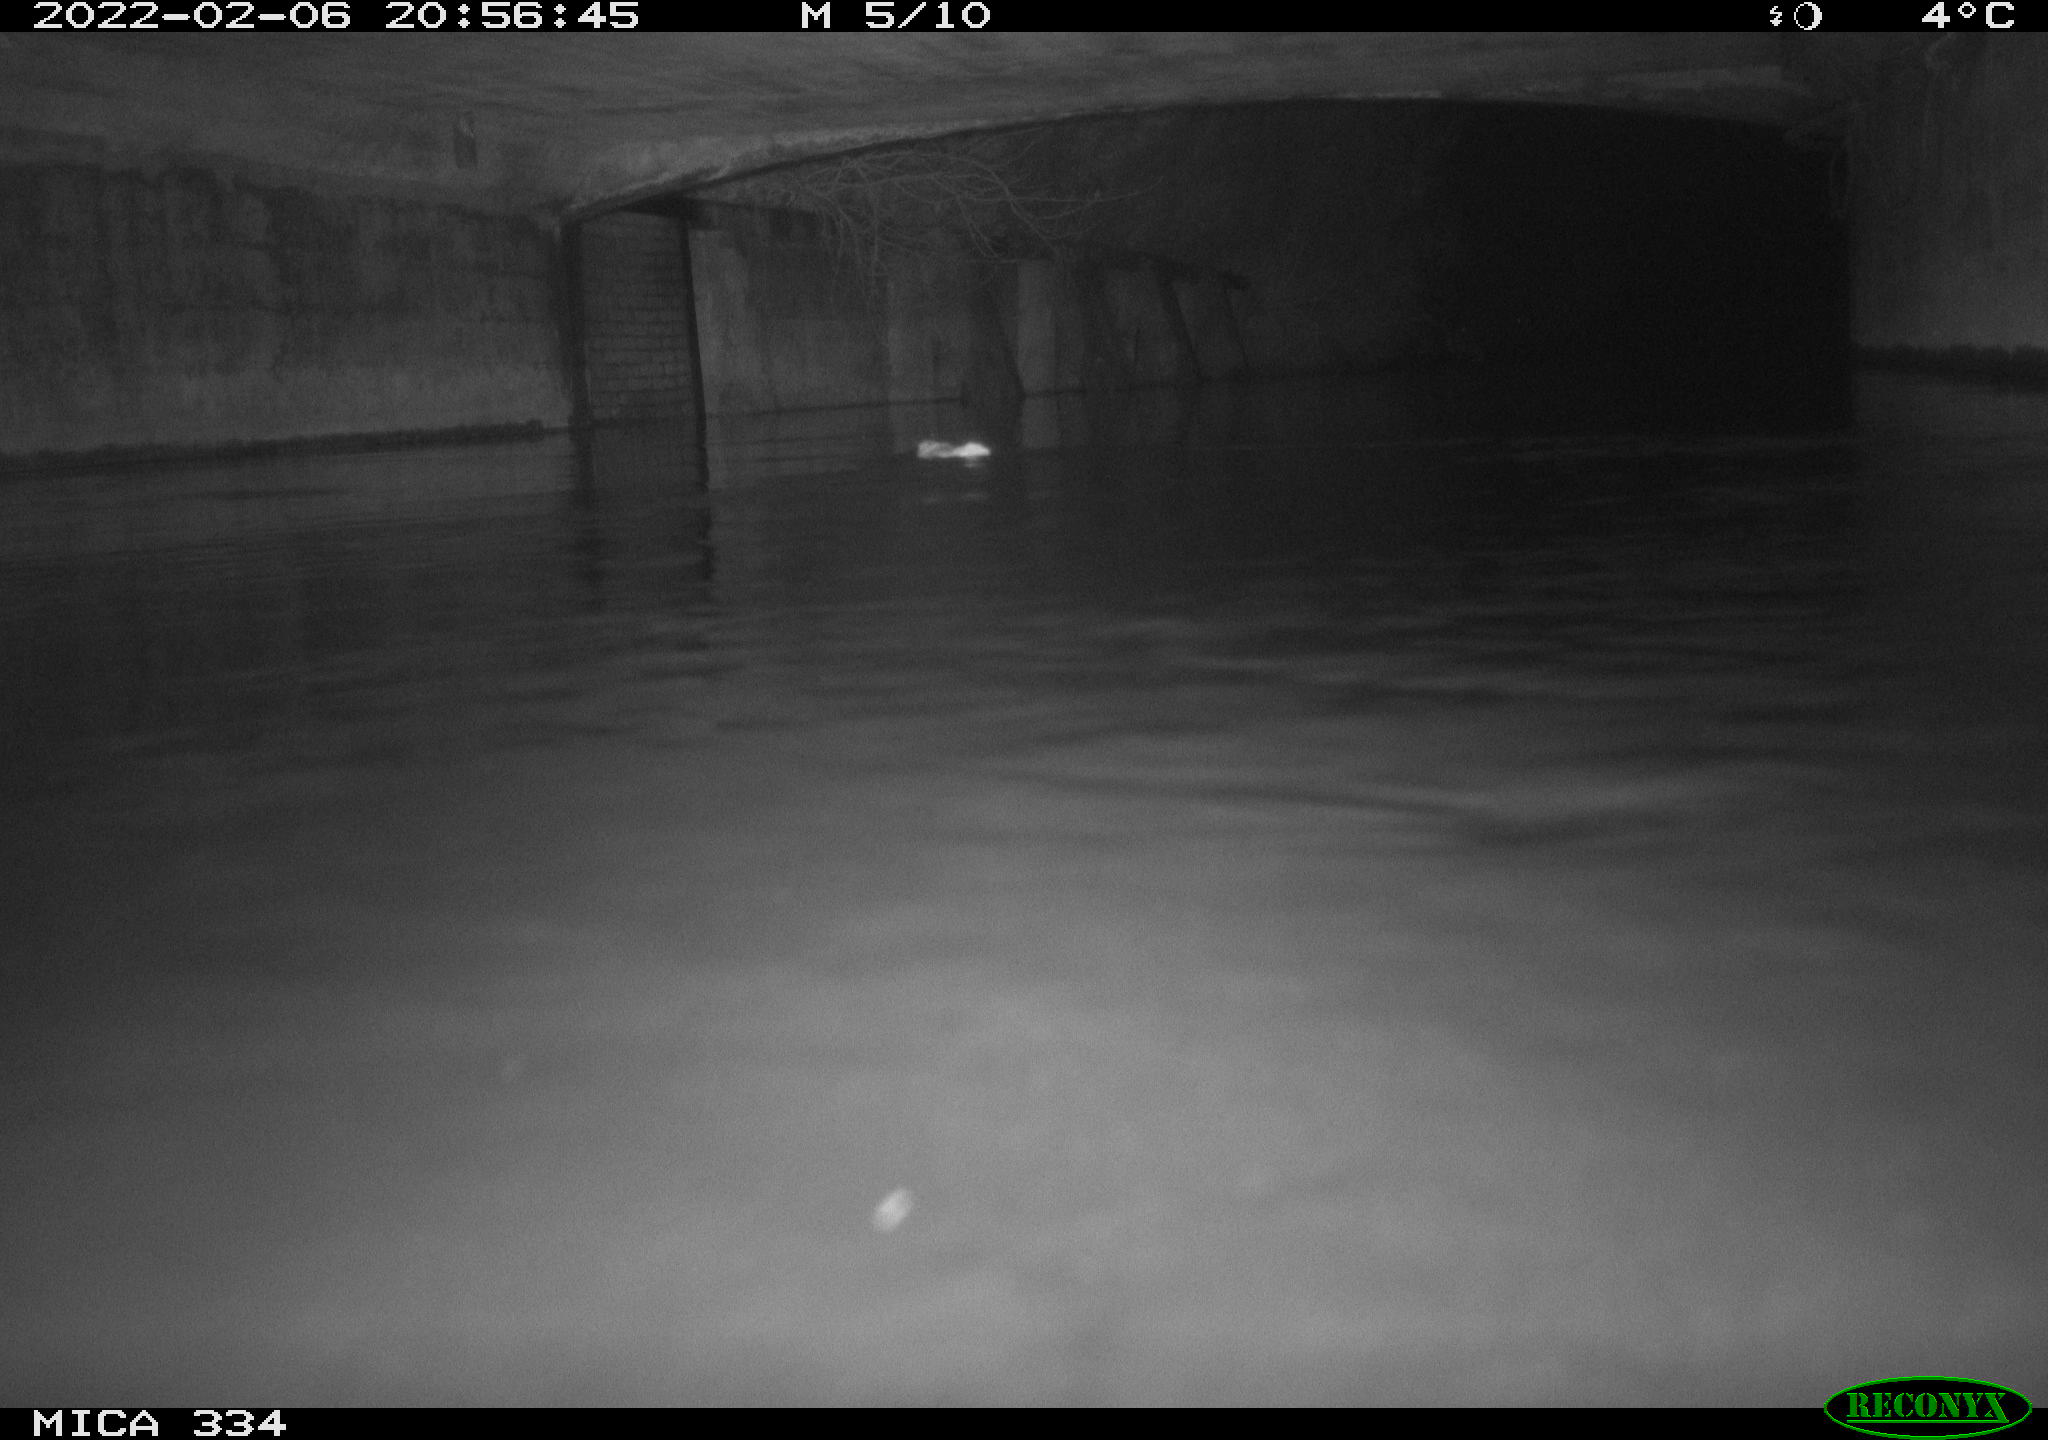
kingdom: Animalia
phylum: Chordata
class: Mammalia
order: Rodentia
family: Muridae
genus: Rattus
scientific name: Rattus norvegicus
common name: Brown rat
